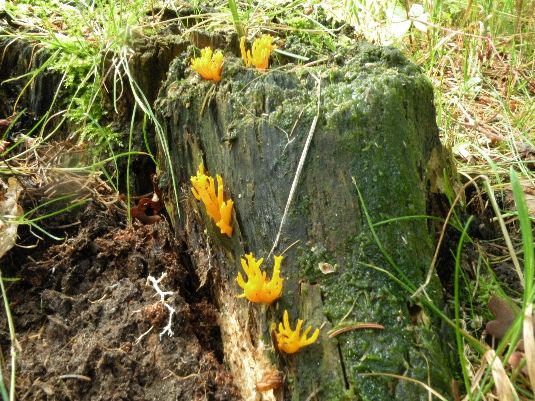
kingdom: Fungi
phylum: Basidiomycota
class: Dacrymycetes
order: Dacrymycetales
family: Dacrymycetaceae
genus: Calocera
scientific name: Calocera viscosa
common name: almindelig guldgaffel
